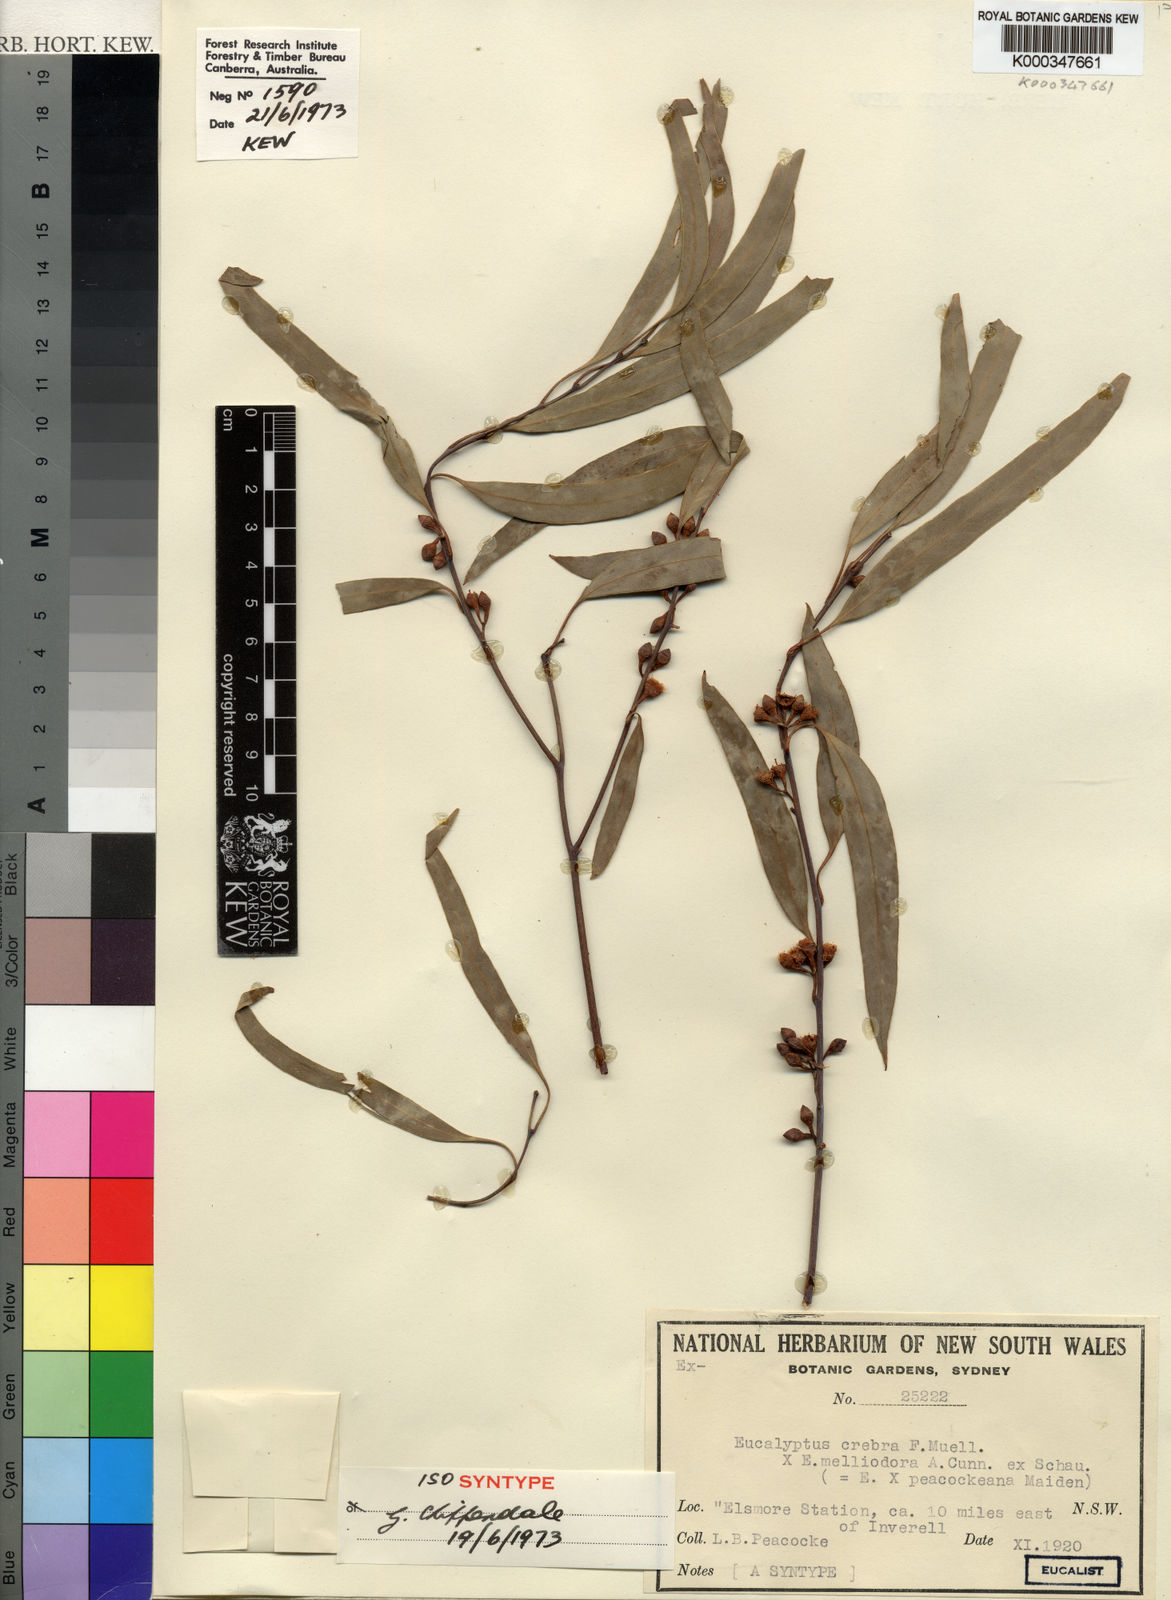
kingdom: Plantae
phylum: Tracheophyta
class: Magnoliopsida
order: Myrtales
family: Myrtaceae
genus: Eucalyptus
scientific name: Eucalyptus peacockeana
